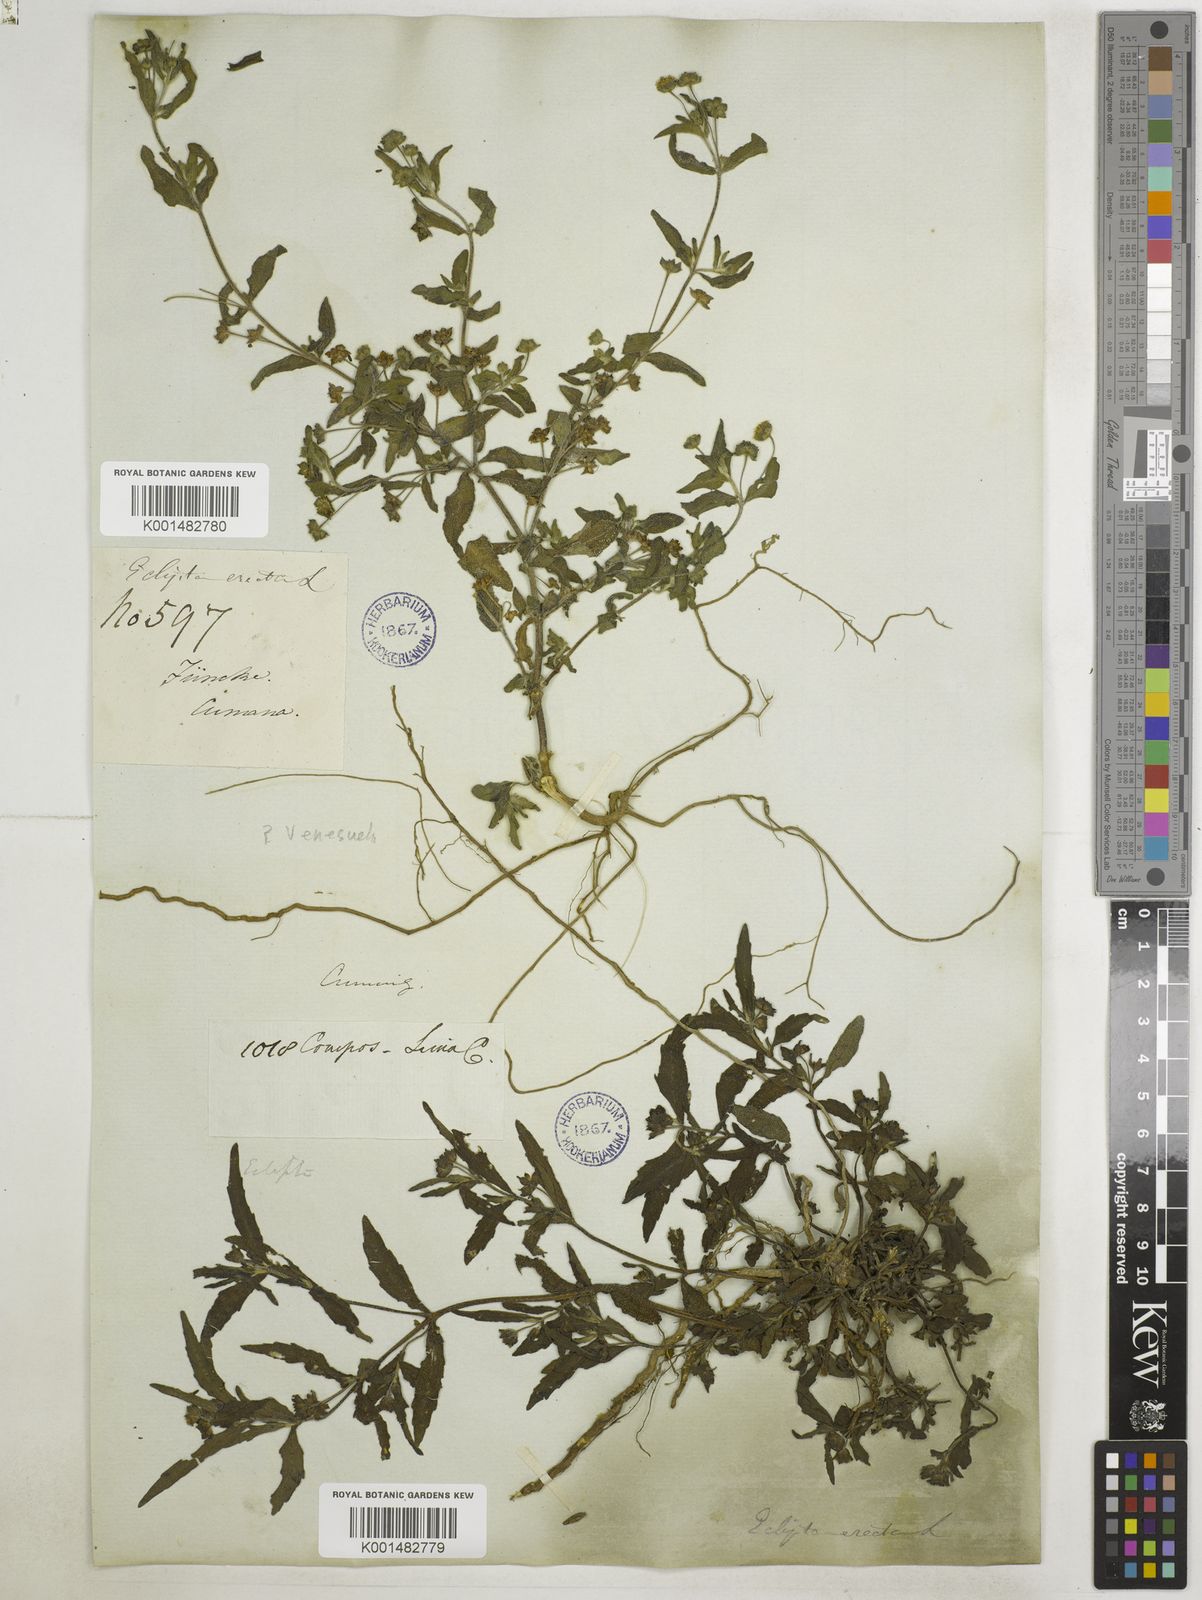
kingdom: Plantae
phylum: Tracheophyta
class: Magnoliopsida
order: Asterales
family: Asteraceae
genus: Eclipta
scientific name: Eclipta prostrata
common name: False daisy
